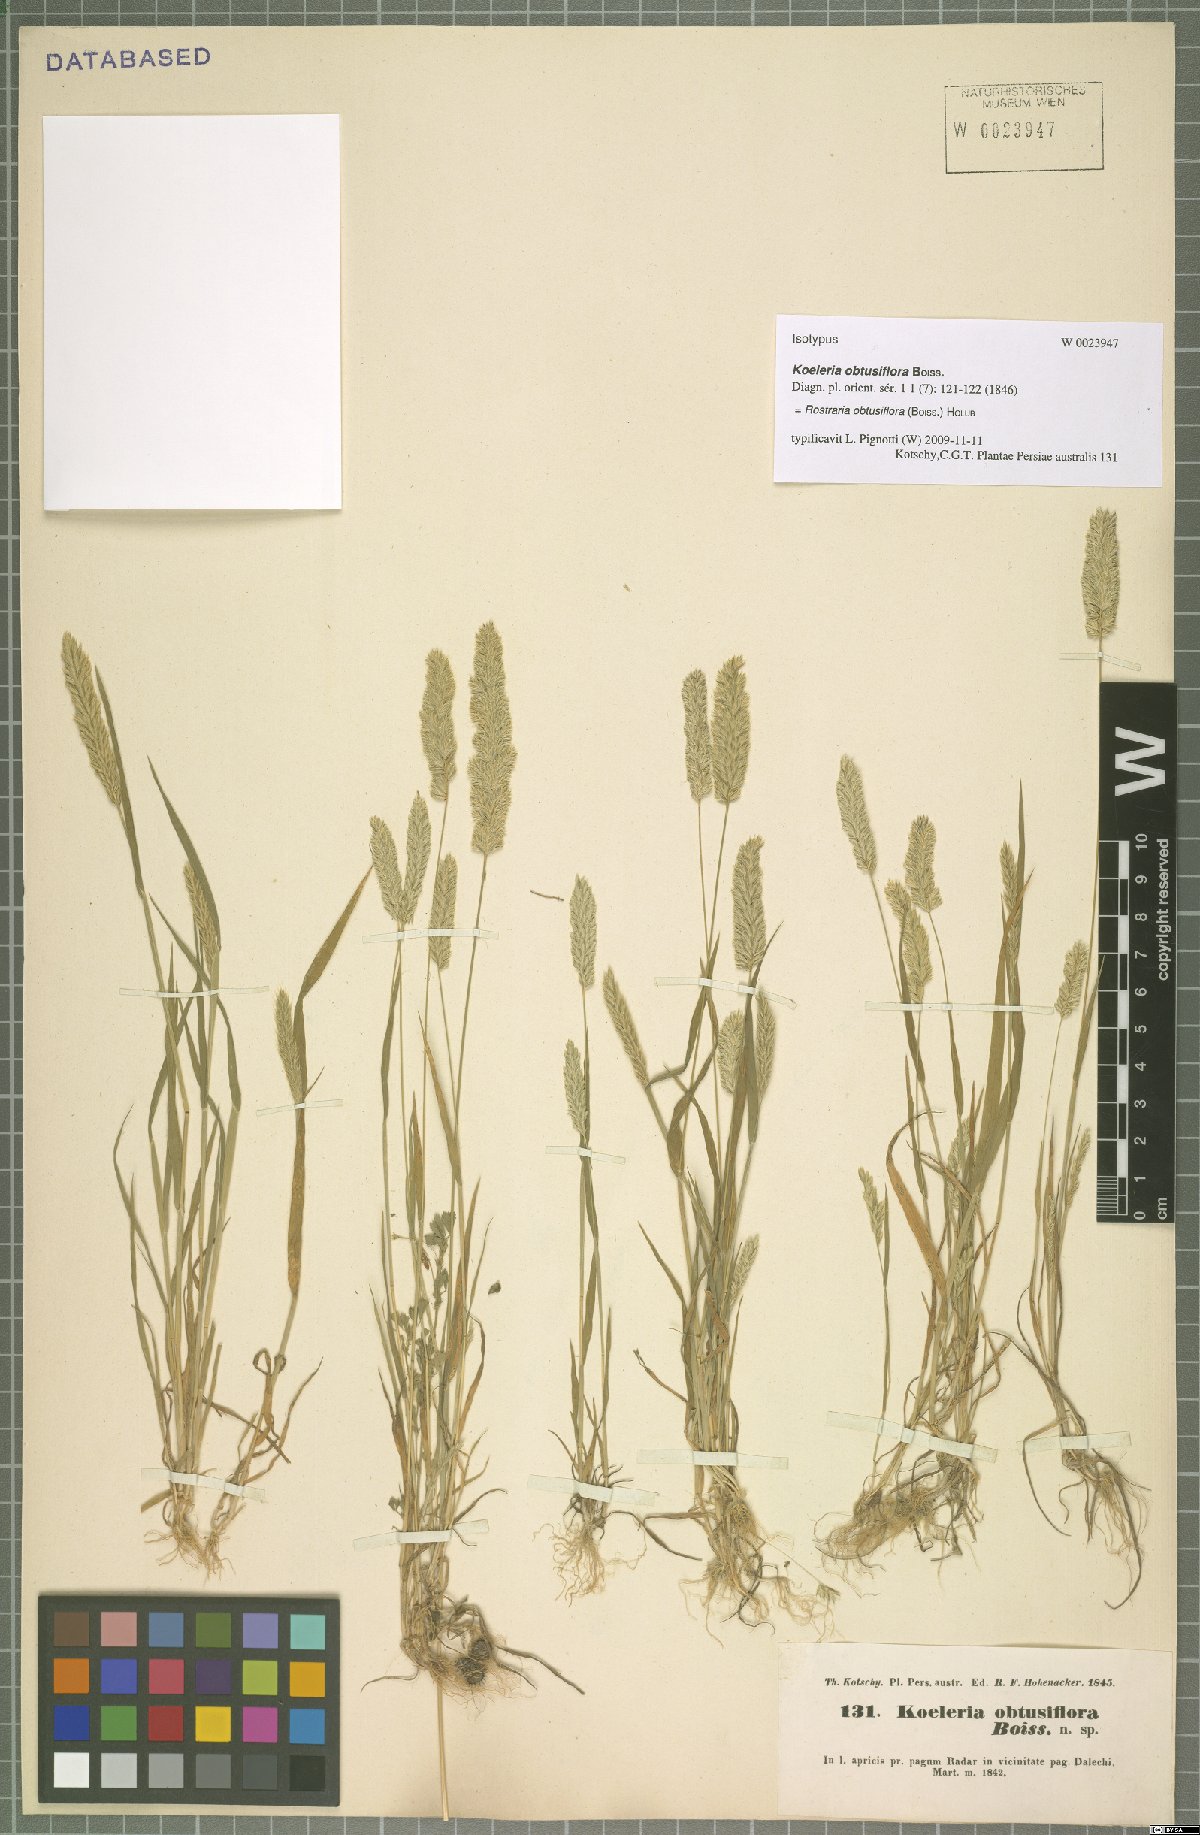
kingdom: Plantae
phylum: Tracheophyta
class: Liliopsida
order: Poales
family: Poaceae
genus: Rostraria
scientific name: Rostraria obtusiflora
